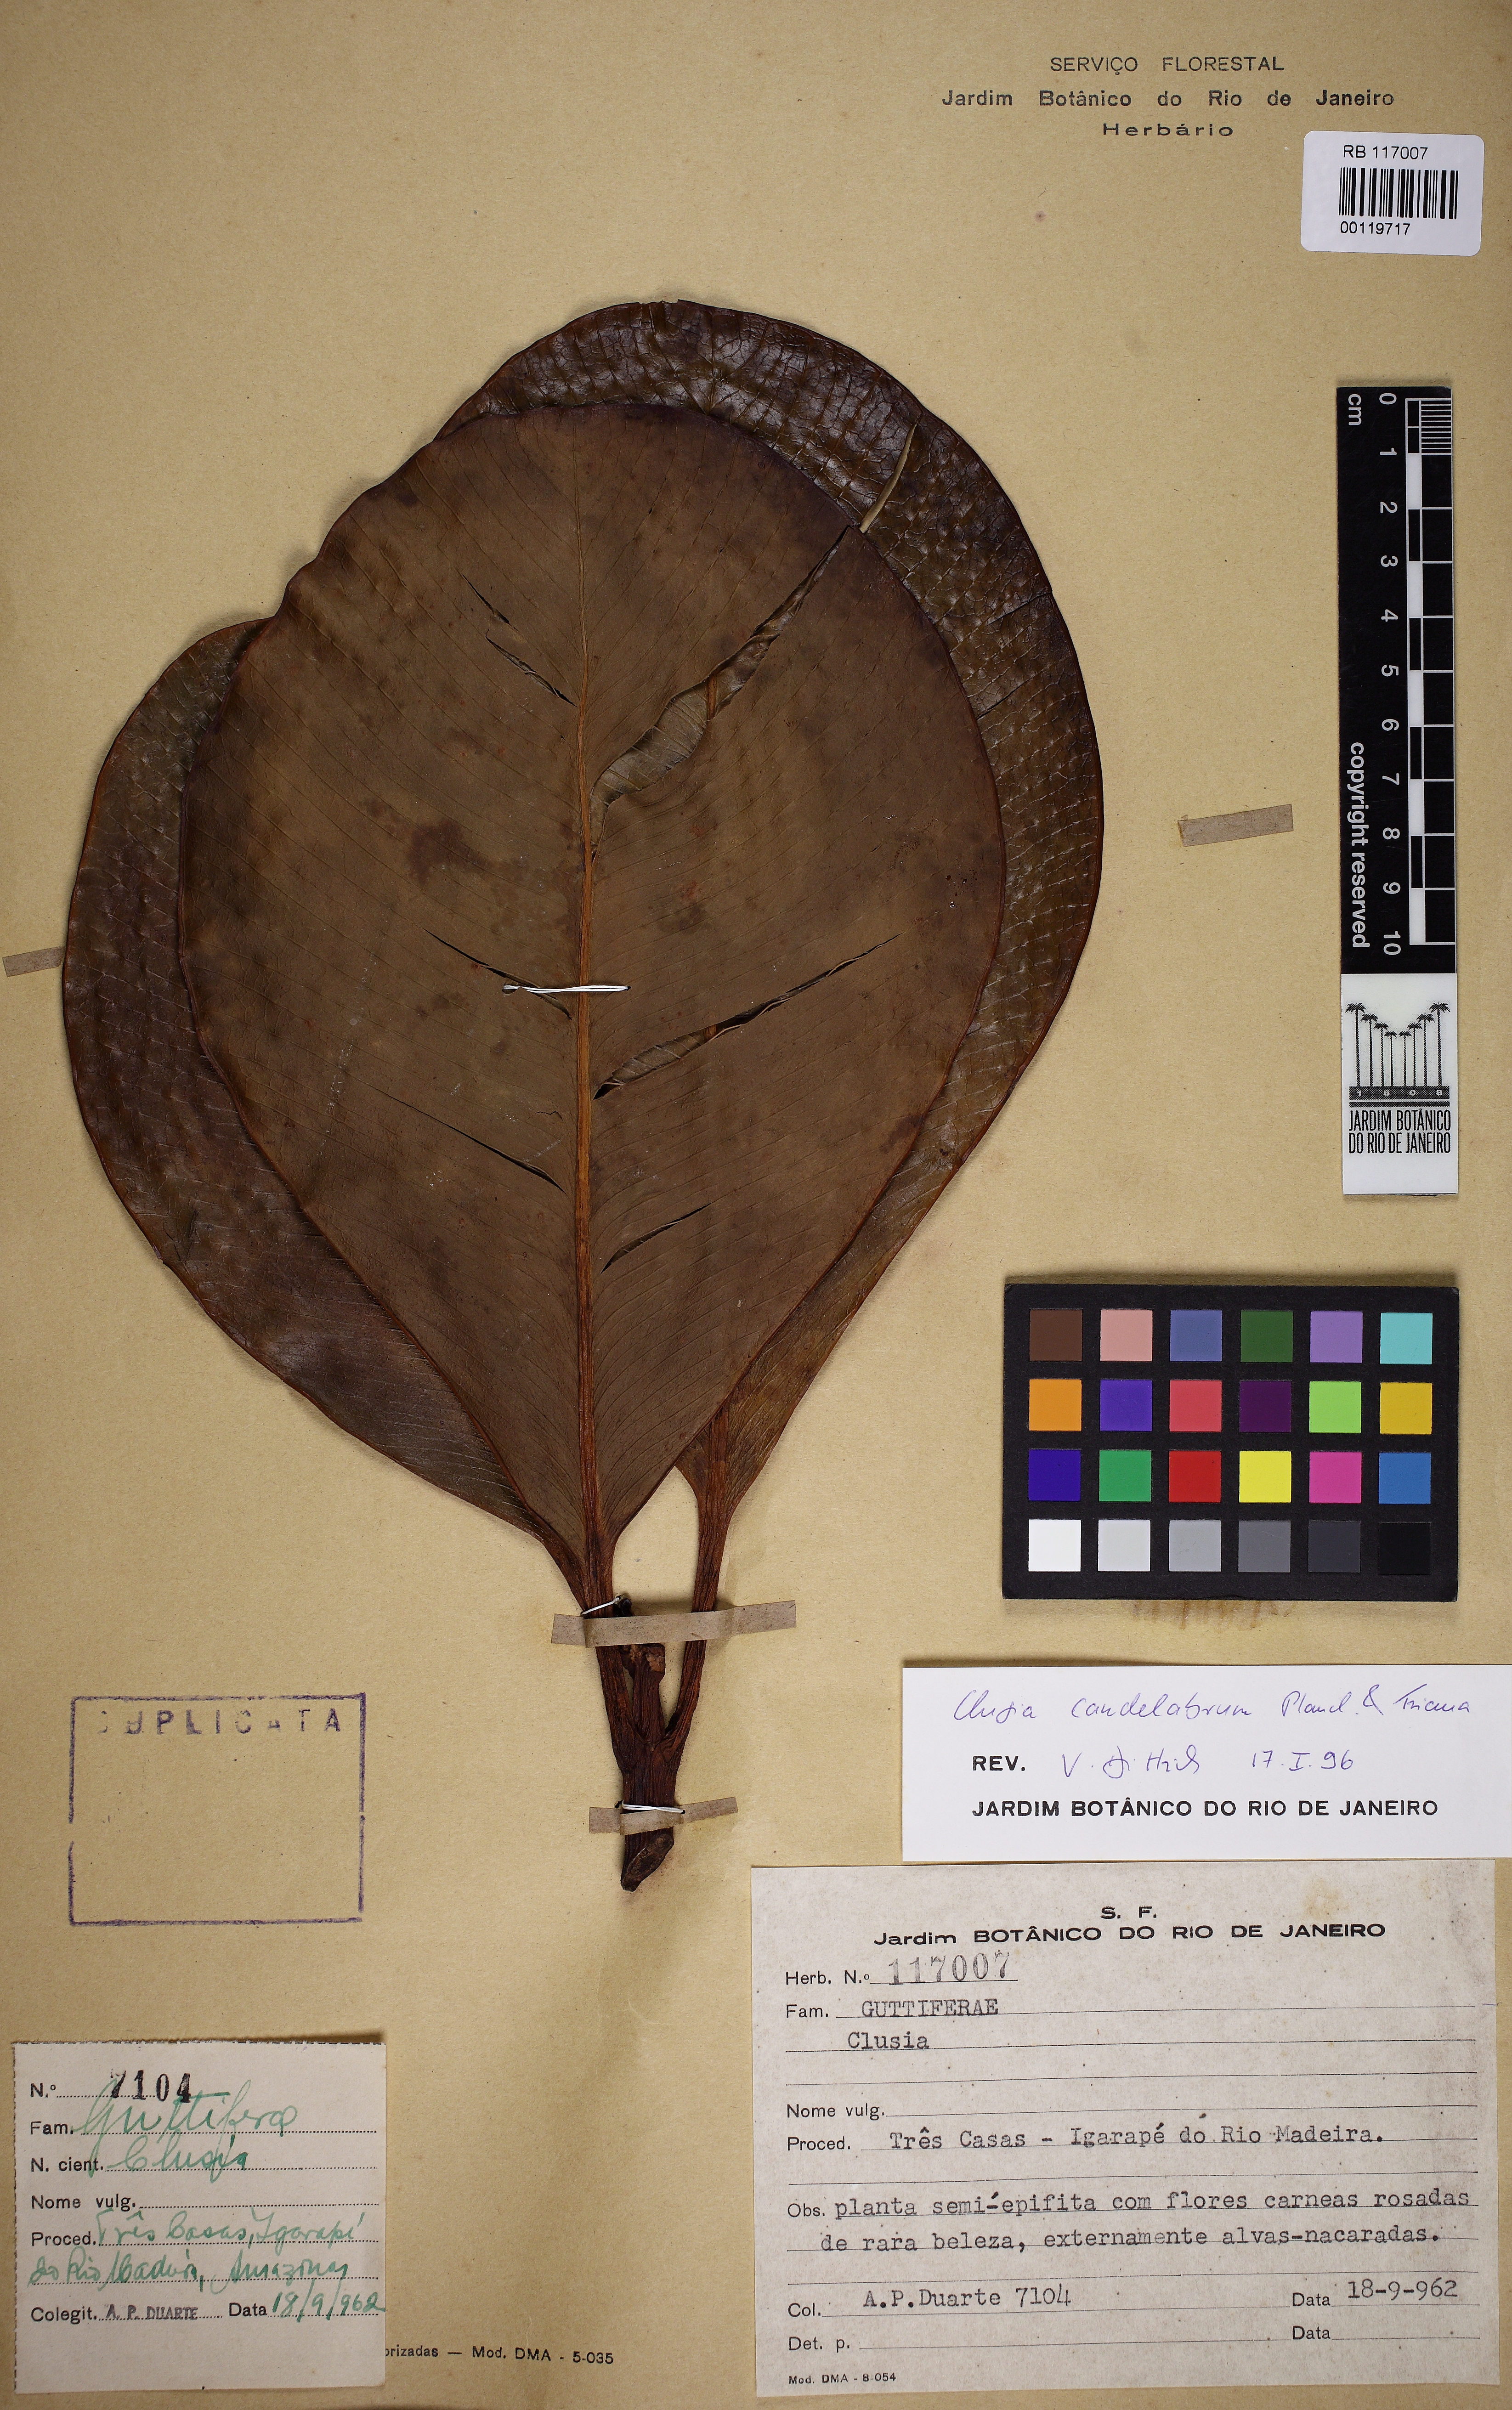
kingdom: Plantae
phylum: Tracheophyta
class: Magnoliopsida
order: Malpighiales
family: Clusiaceae
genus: Clusia
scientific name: Clusia candelabrum
